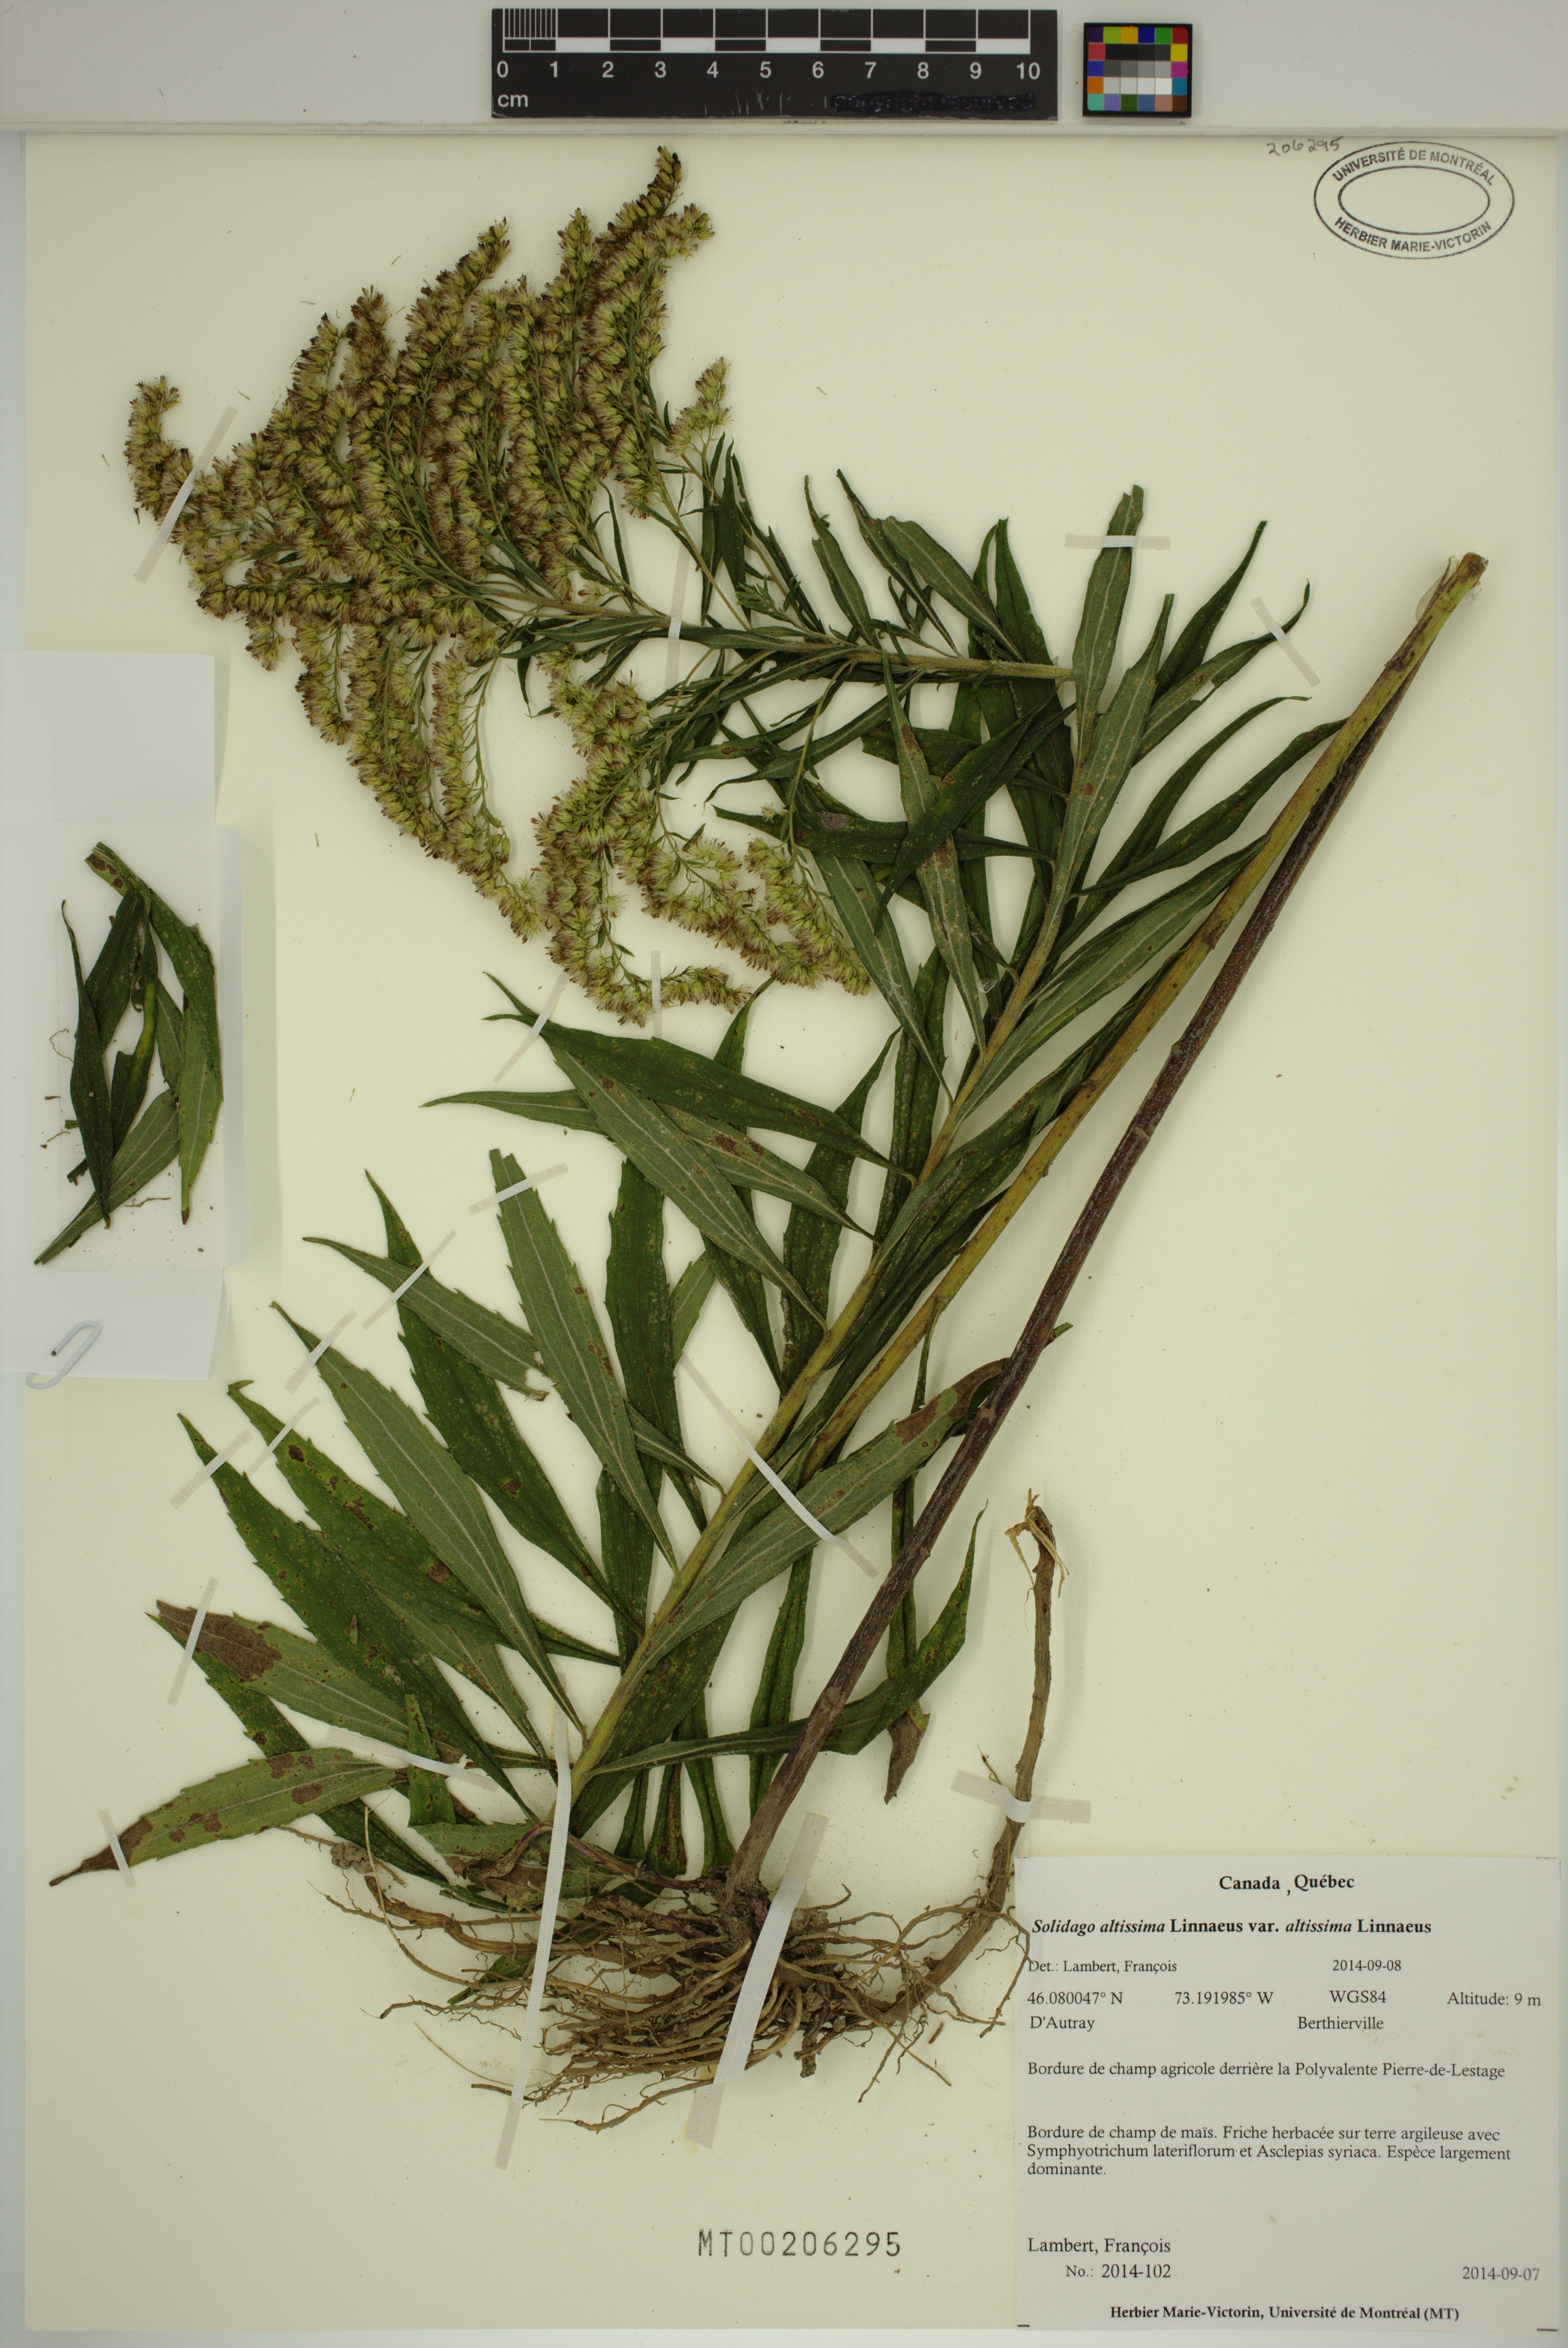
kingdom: Plantae
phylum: Tracheophyta
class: Magnoliopsida
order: Asterales
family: Asteraceae
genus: Solidago
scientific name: Solidago altissima
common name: Late goldenrod
